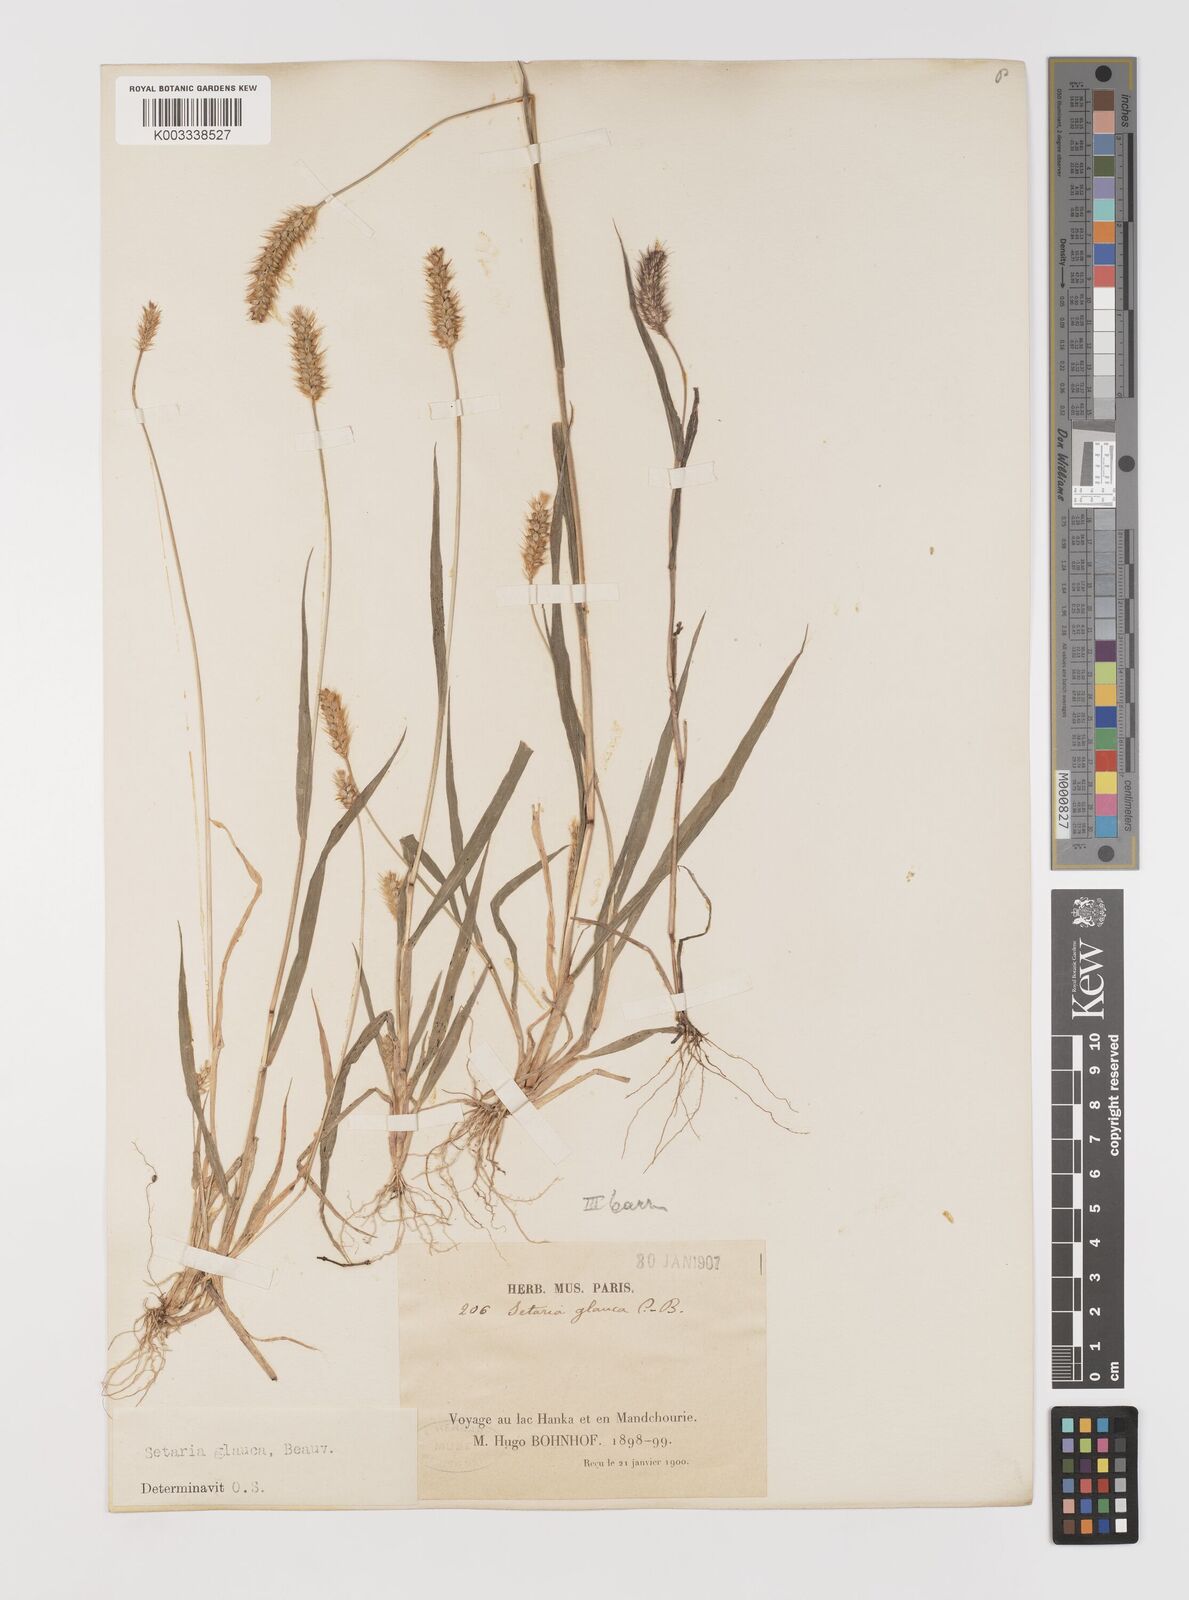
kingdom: Plantae
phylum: Tracheophyta
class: Liliopsida
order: Poales
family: Poaceae
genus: Cenchrus
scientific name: Cenchrus americanus
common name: Pearl millet
